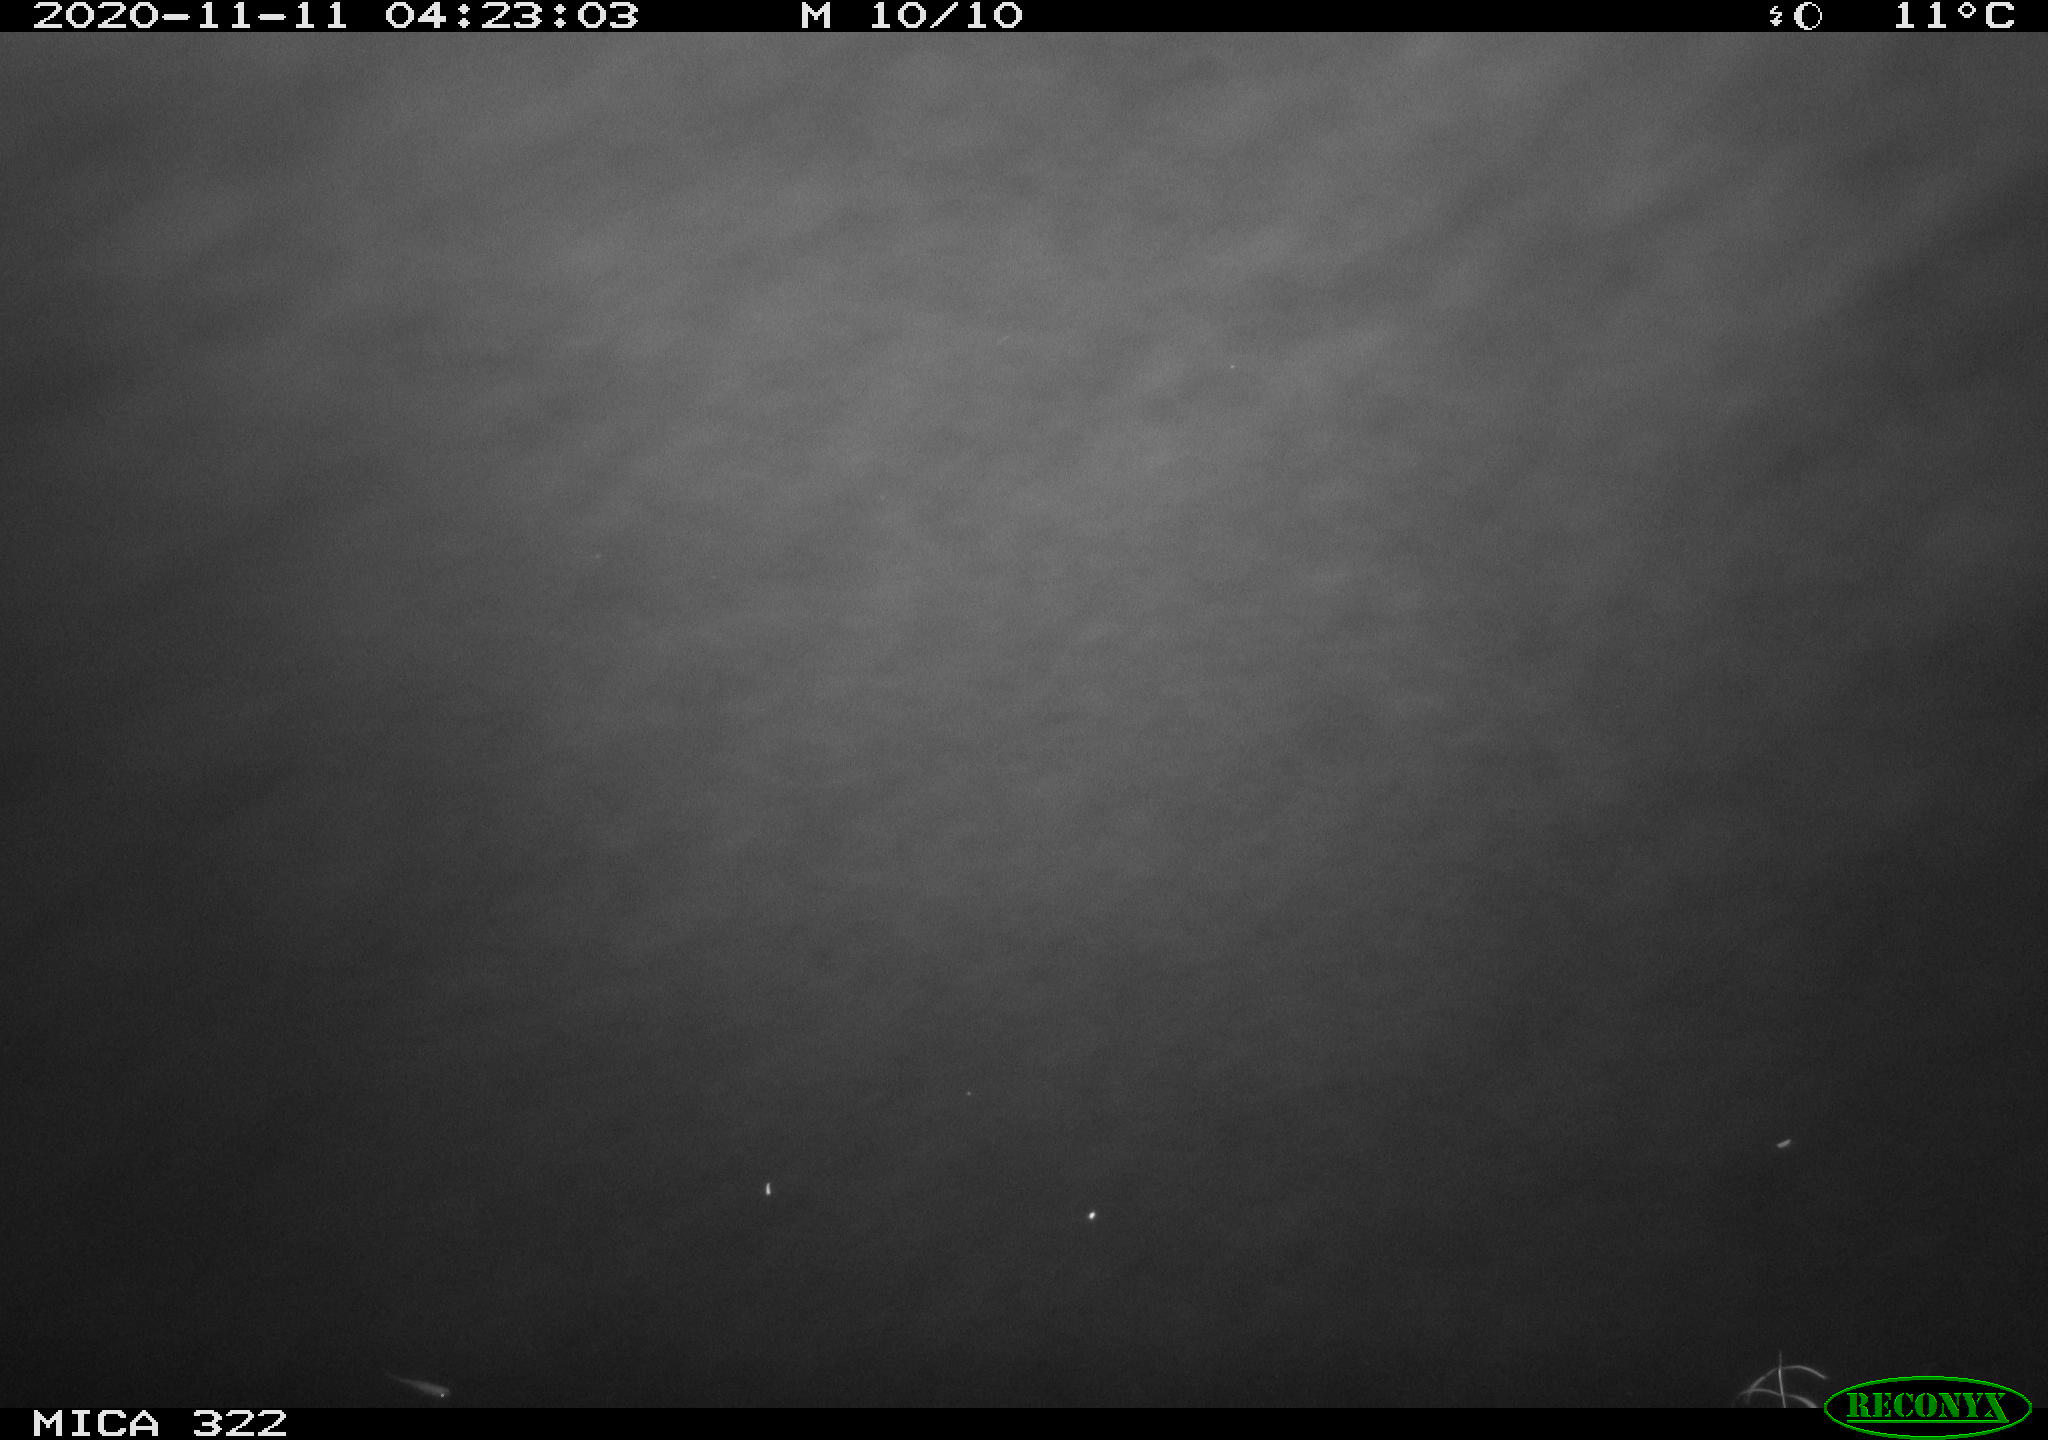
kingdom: Animalia
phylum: Chordata
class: Mammalia
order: Rodentia
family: Muridae
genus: Rattus
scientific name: Rattus norvegicus
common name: Brown rat
